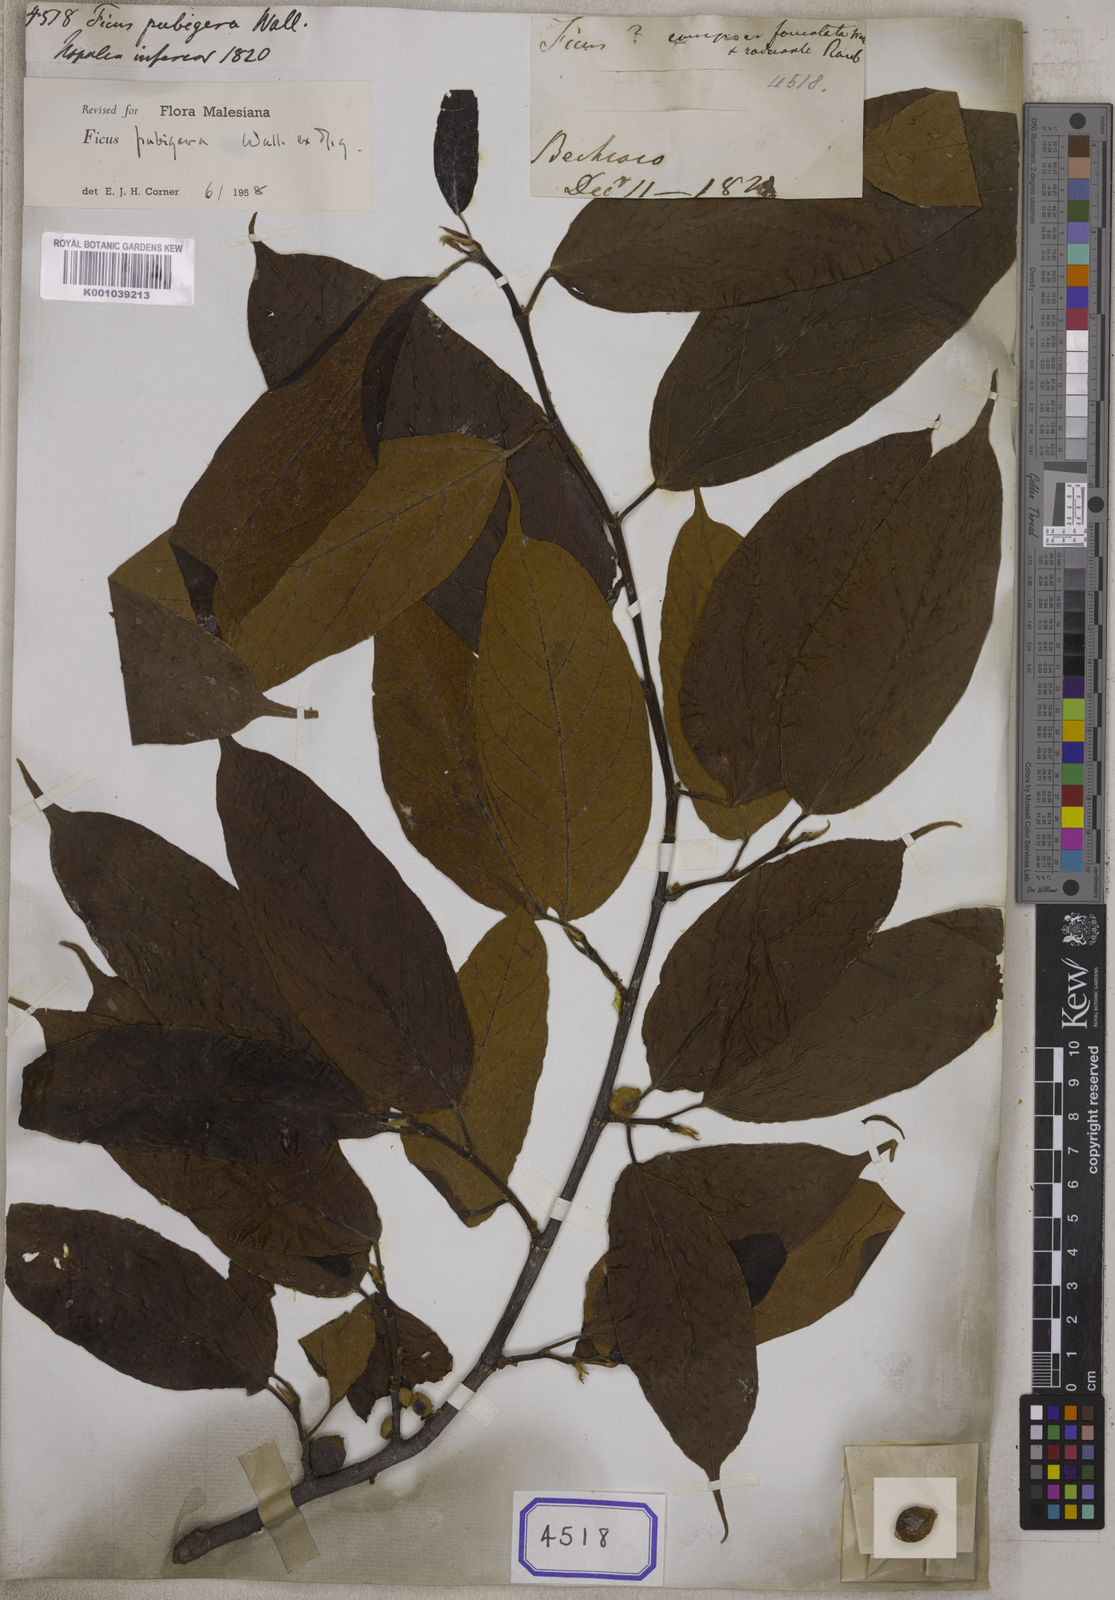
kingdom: Plantae
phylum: Tracheophyta
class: Magnoliopsida
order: Rosales
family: Moraceae
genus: Ficus
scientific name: Ficus
